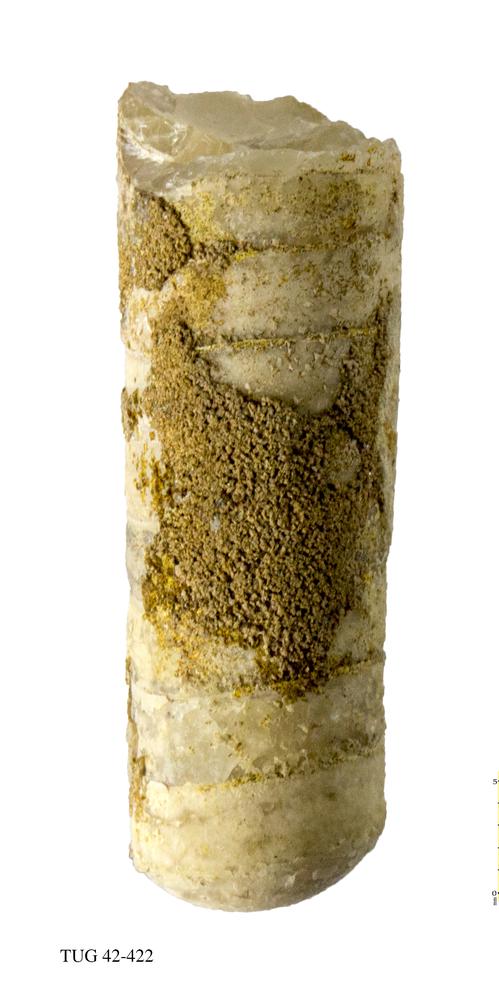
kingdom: Animalia
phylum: Mollusca
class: Cephalopoda
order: Orthocerida
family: Orthoceratidae
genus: Orthoceras
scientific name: Orthoceras regulare
